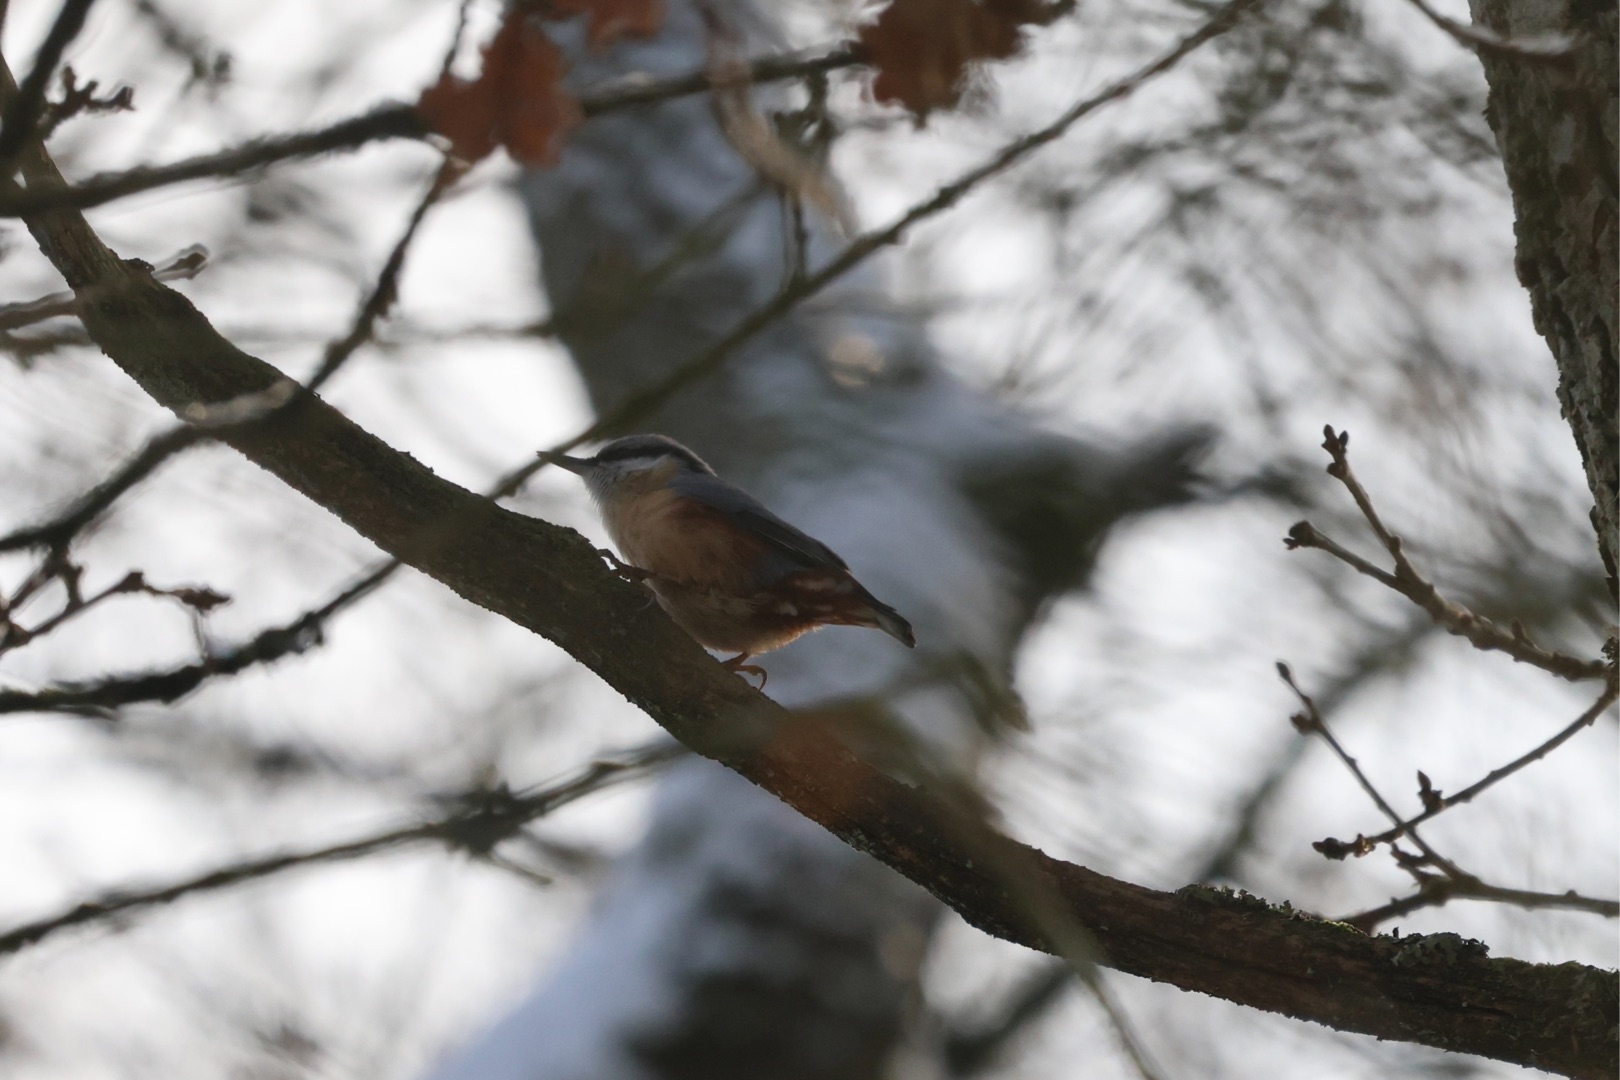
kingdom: Animalia
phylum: Chordata
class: Aves
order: Passeriformes
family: Sittidae
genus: Sitta
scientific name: Sitta europaea
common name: Spætmejse
